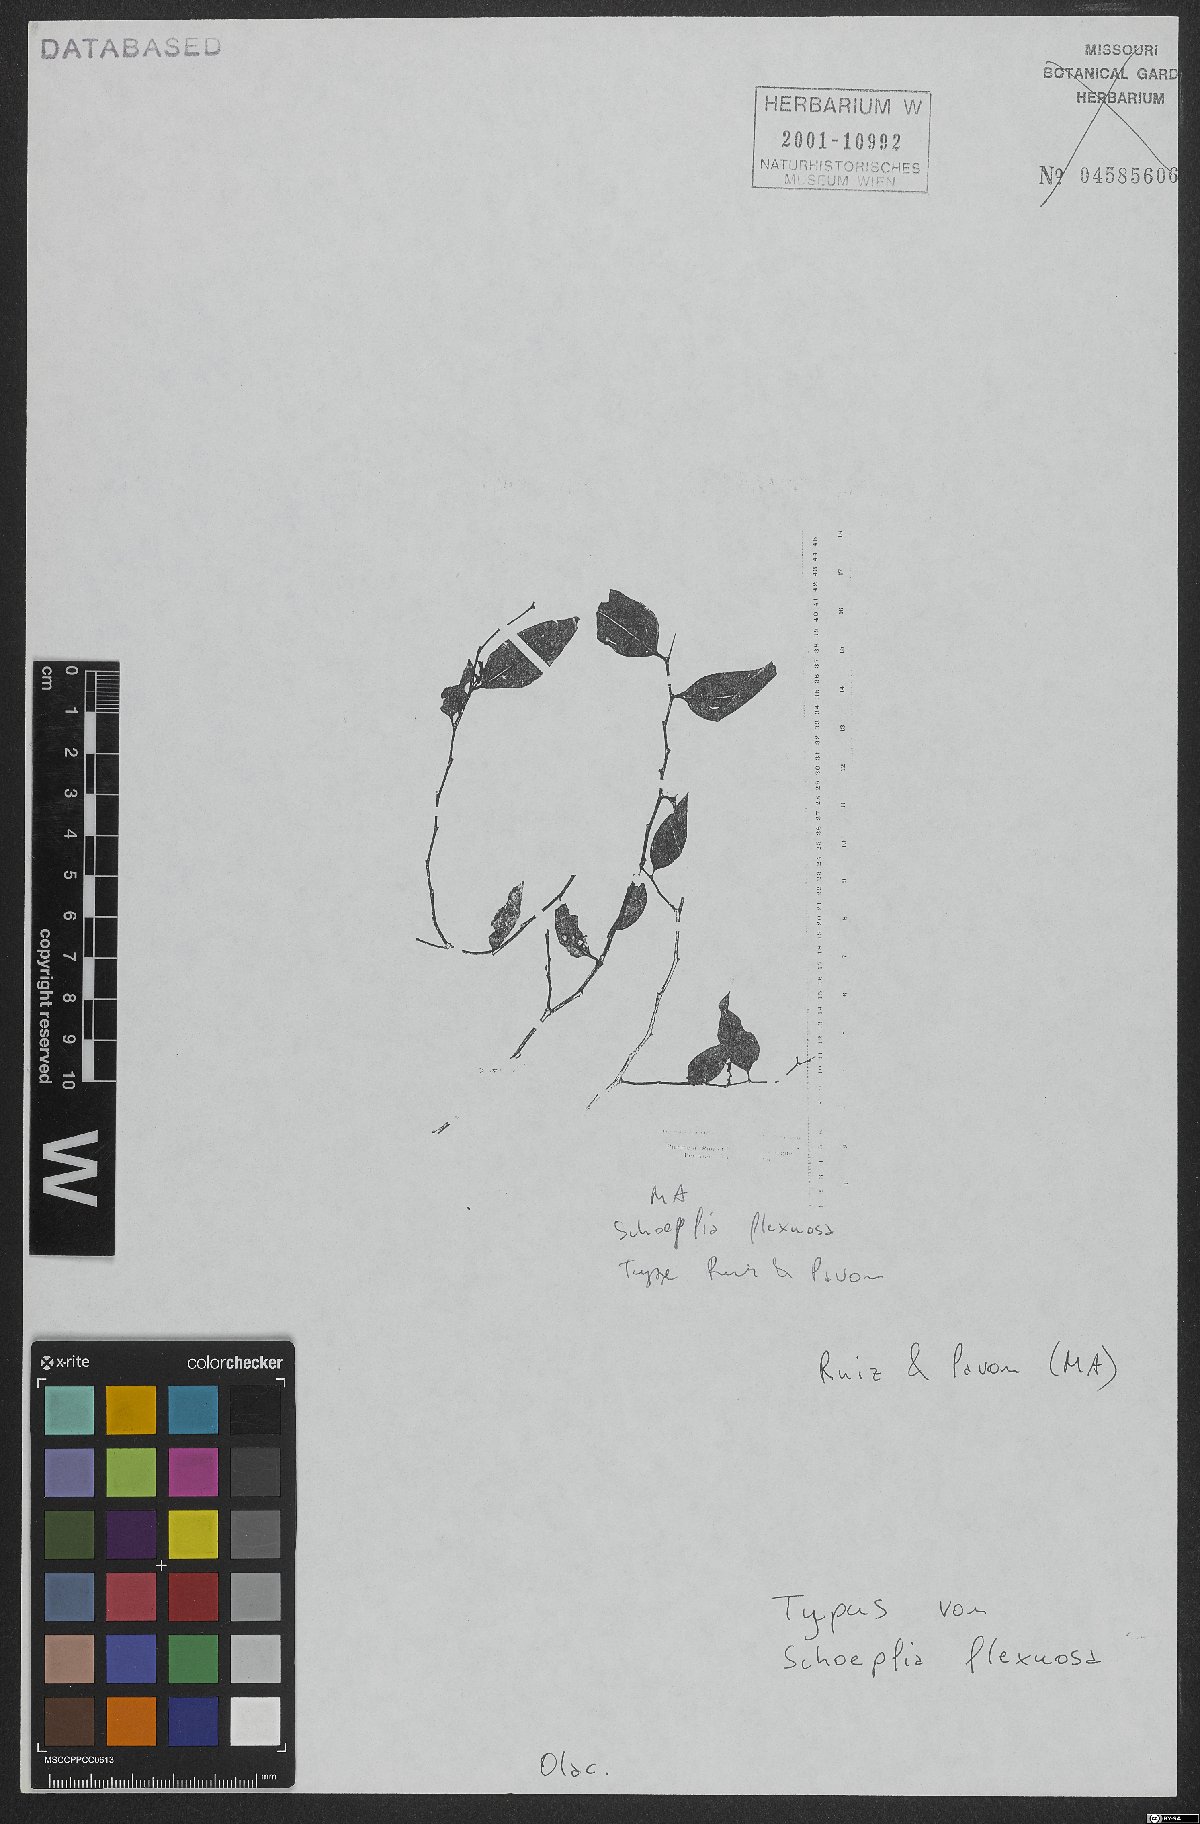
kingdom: Plantae
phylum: Tracheophyta
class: Magnoliopsida
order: Santalales
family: Schoepfiaceae
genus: Schoepfia
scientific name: Schoepfia flexuosa
